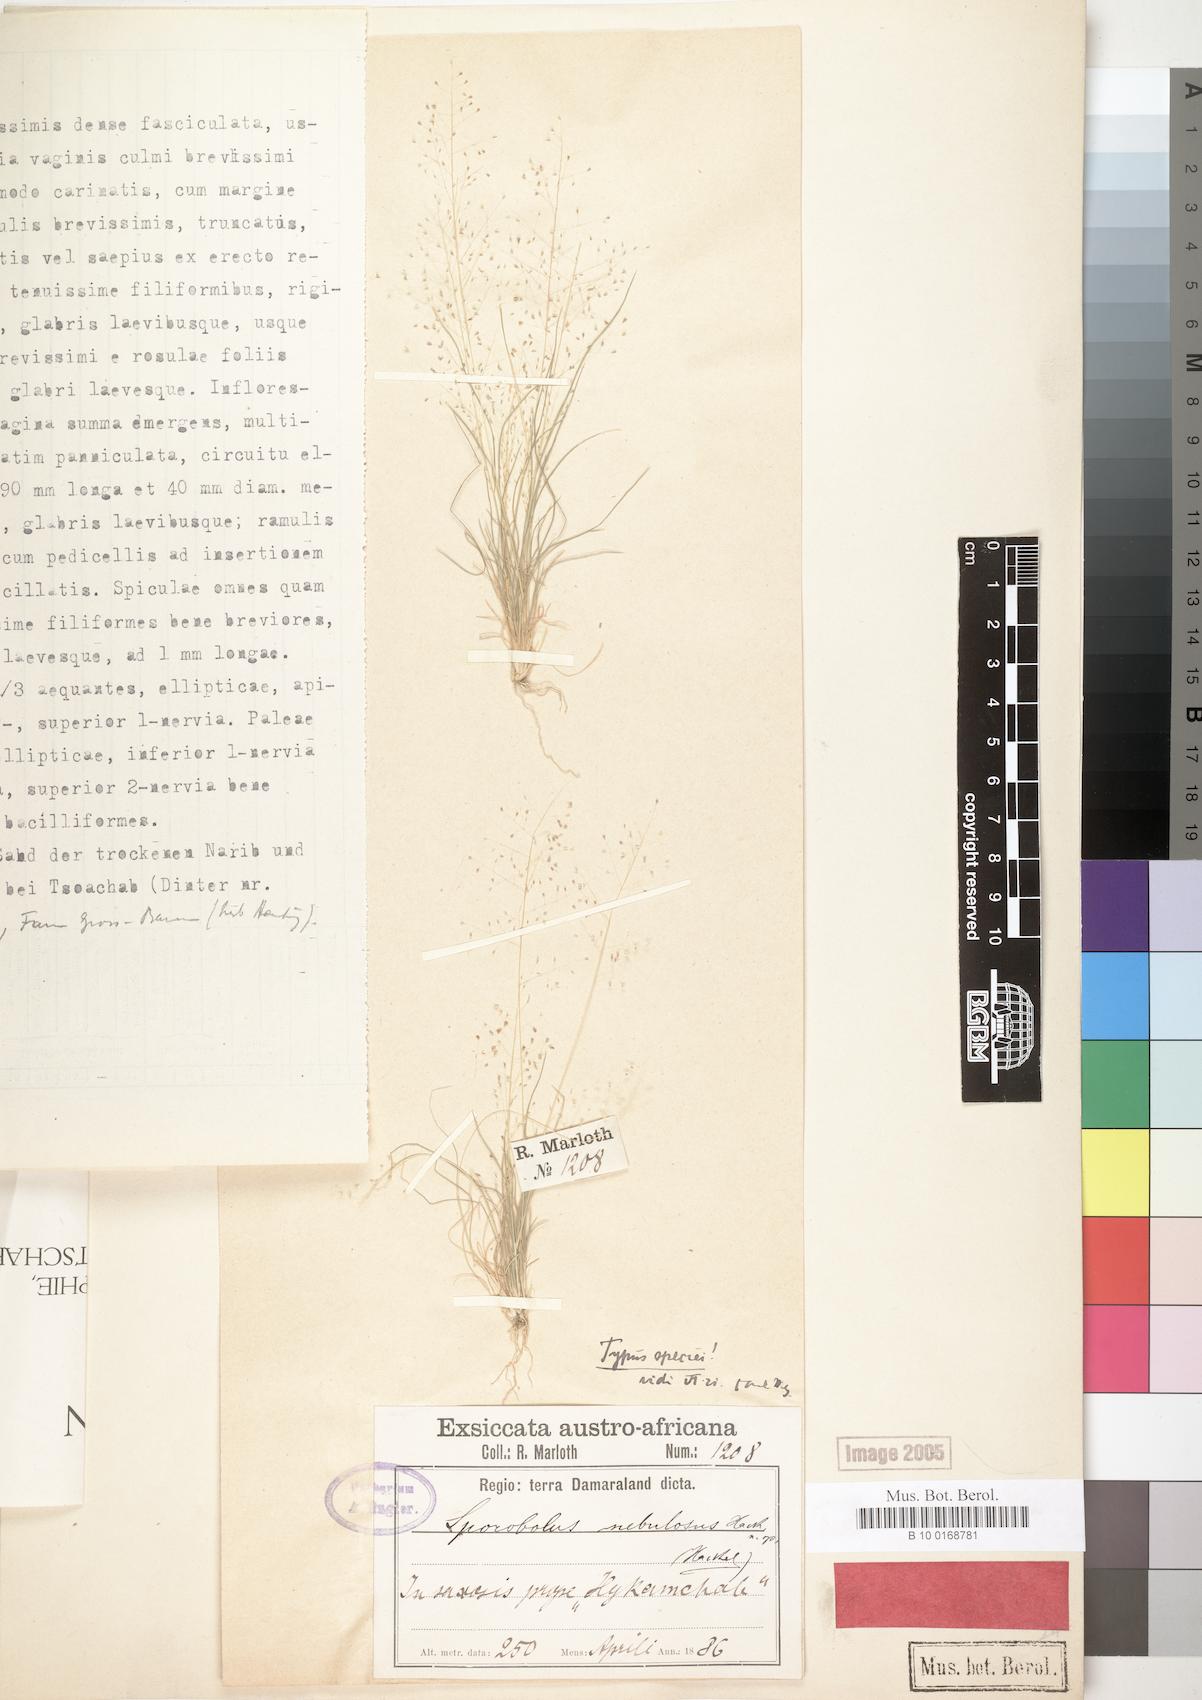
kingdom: Plantae
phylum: Tracheophyta
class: Liliopsida
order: Poales
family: Poaceae
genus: Sporobolus
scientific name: Sporobolus nebulosus
